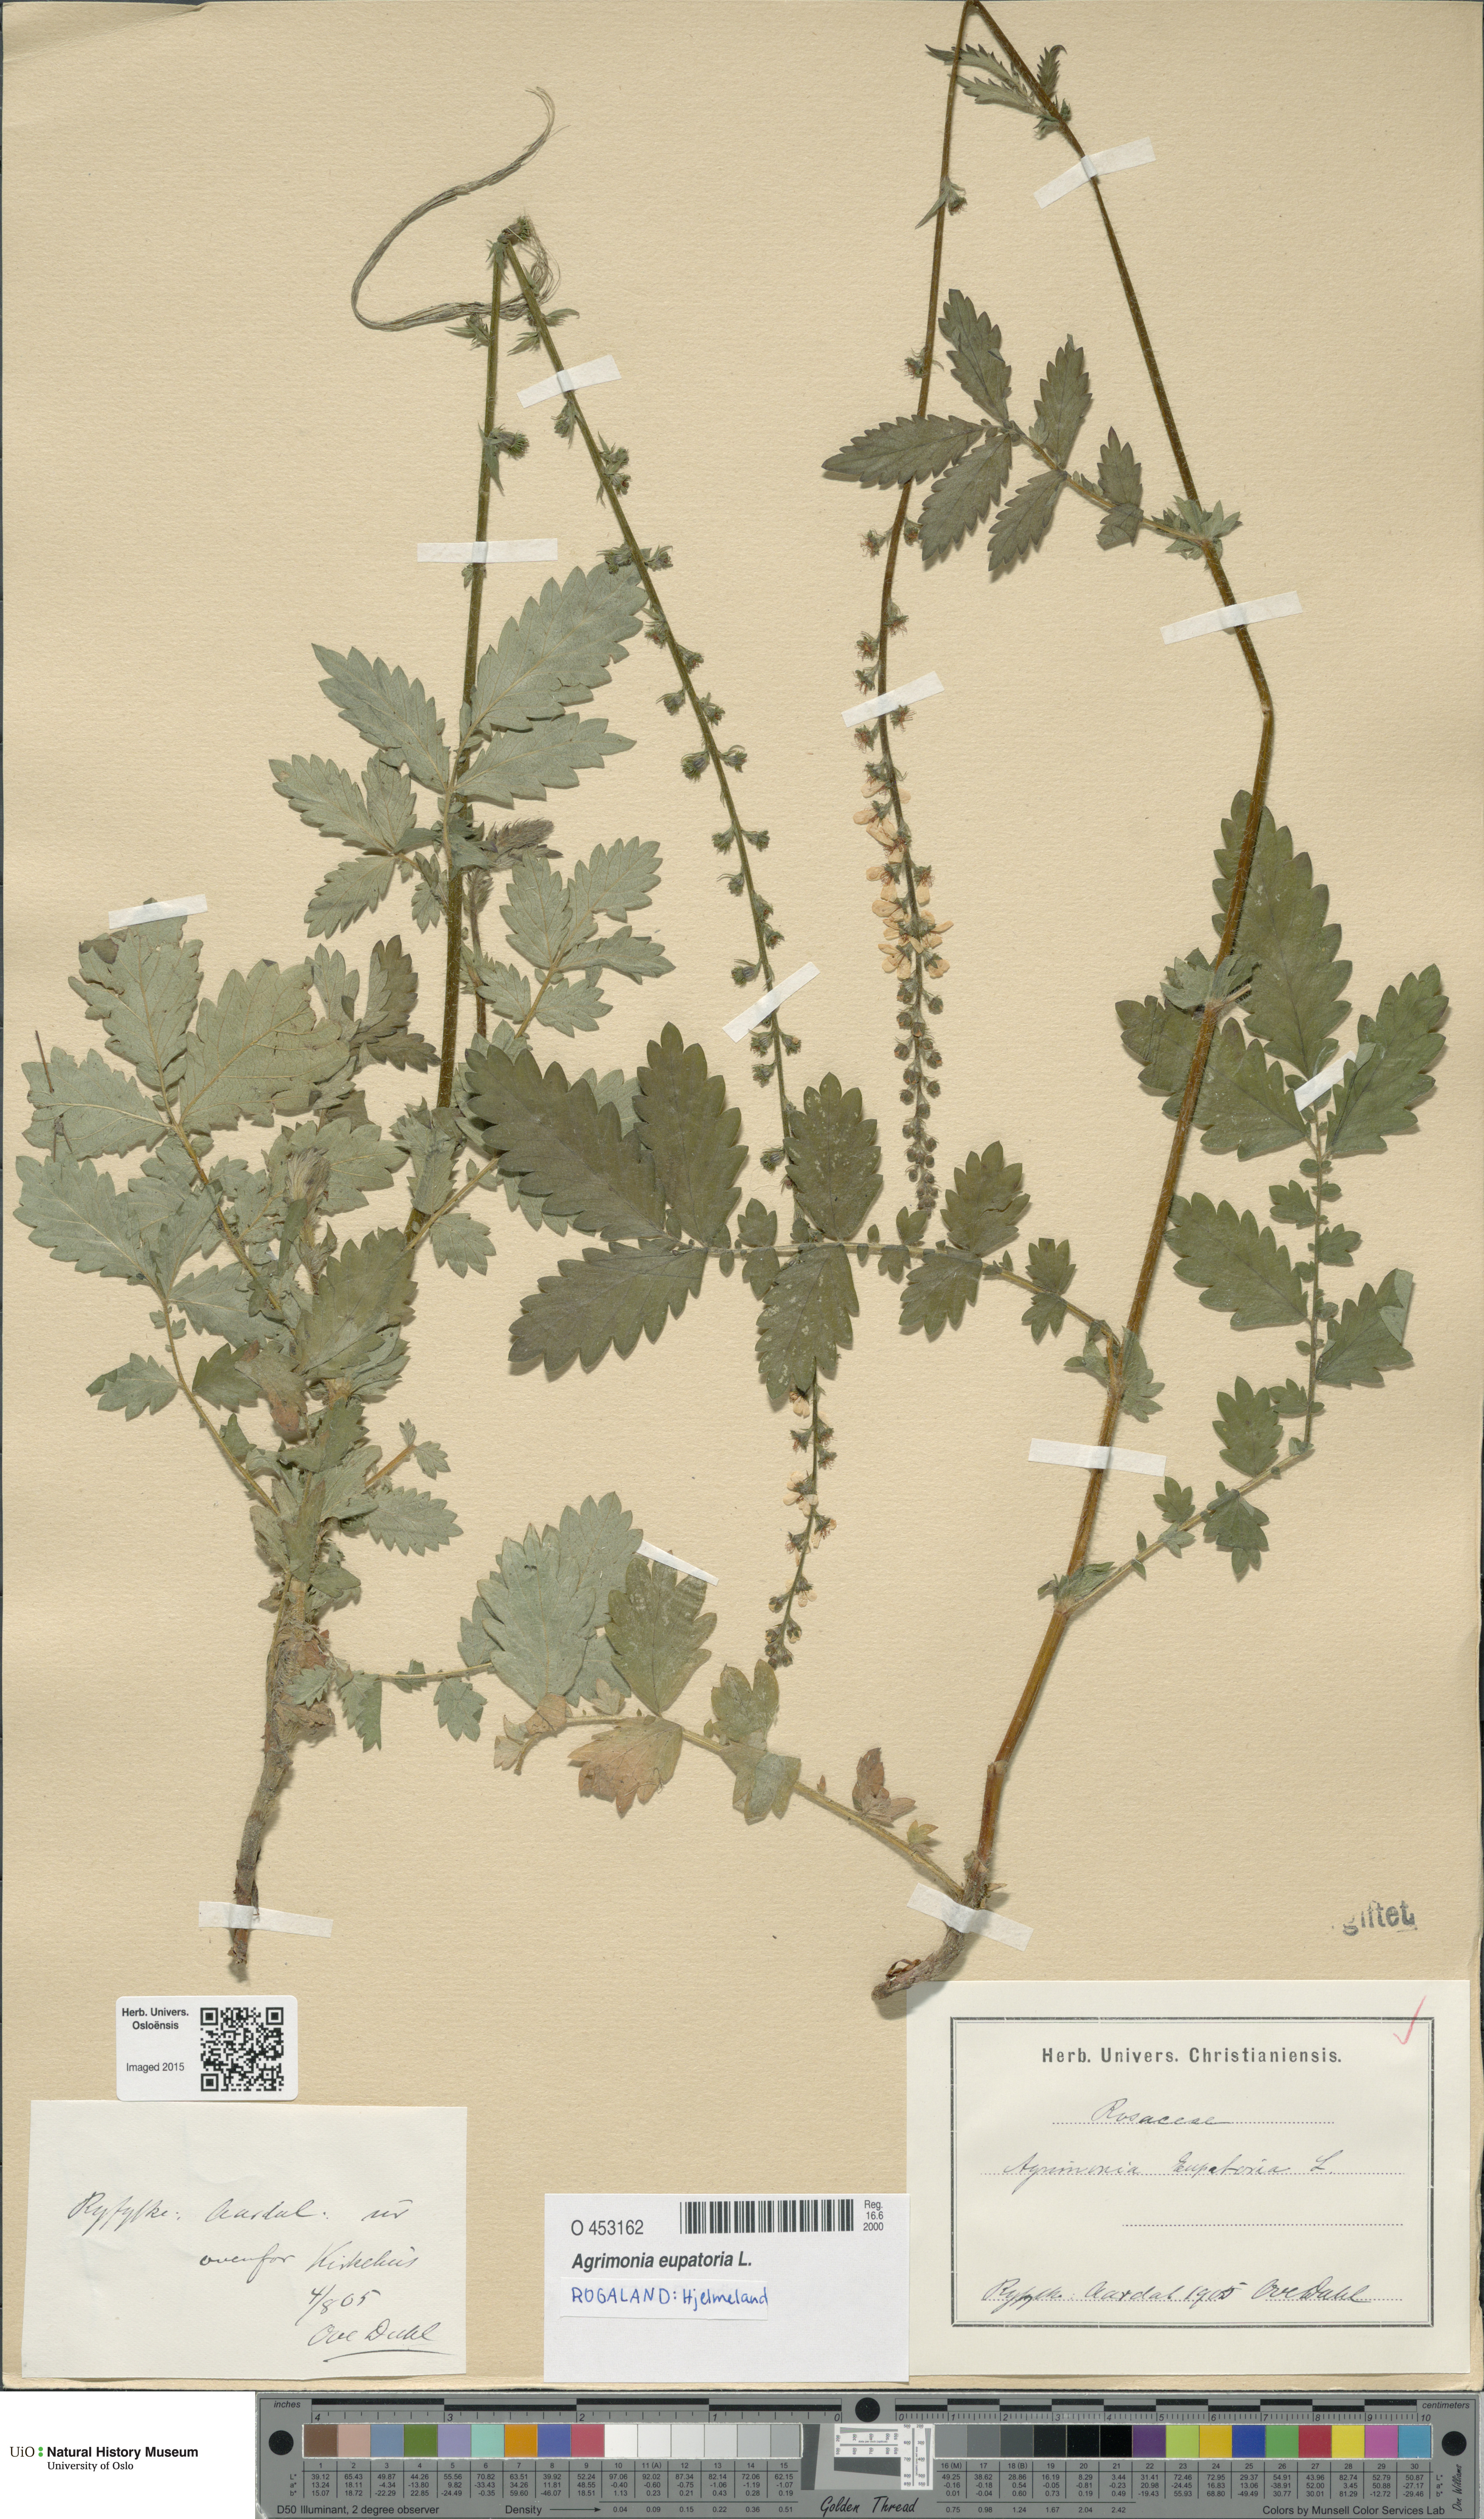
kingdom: Plantae
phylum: Tracheophyta
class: Magnoliopsida
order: Rosales
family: Rosaceae
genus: Agrimonia
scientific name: Agrimonia eupatoria
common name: Agrimony
